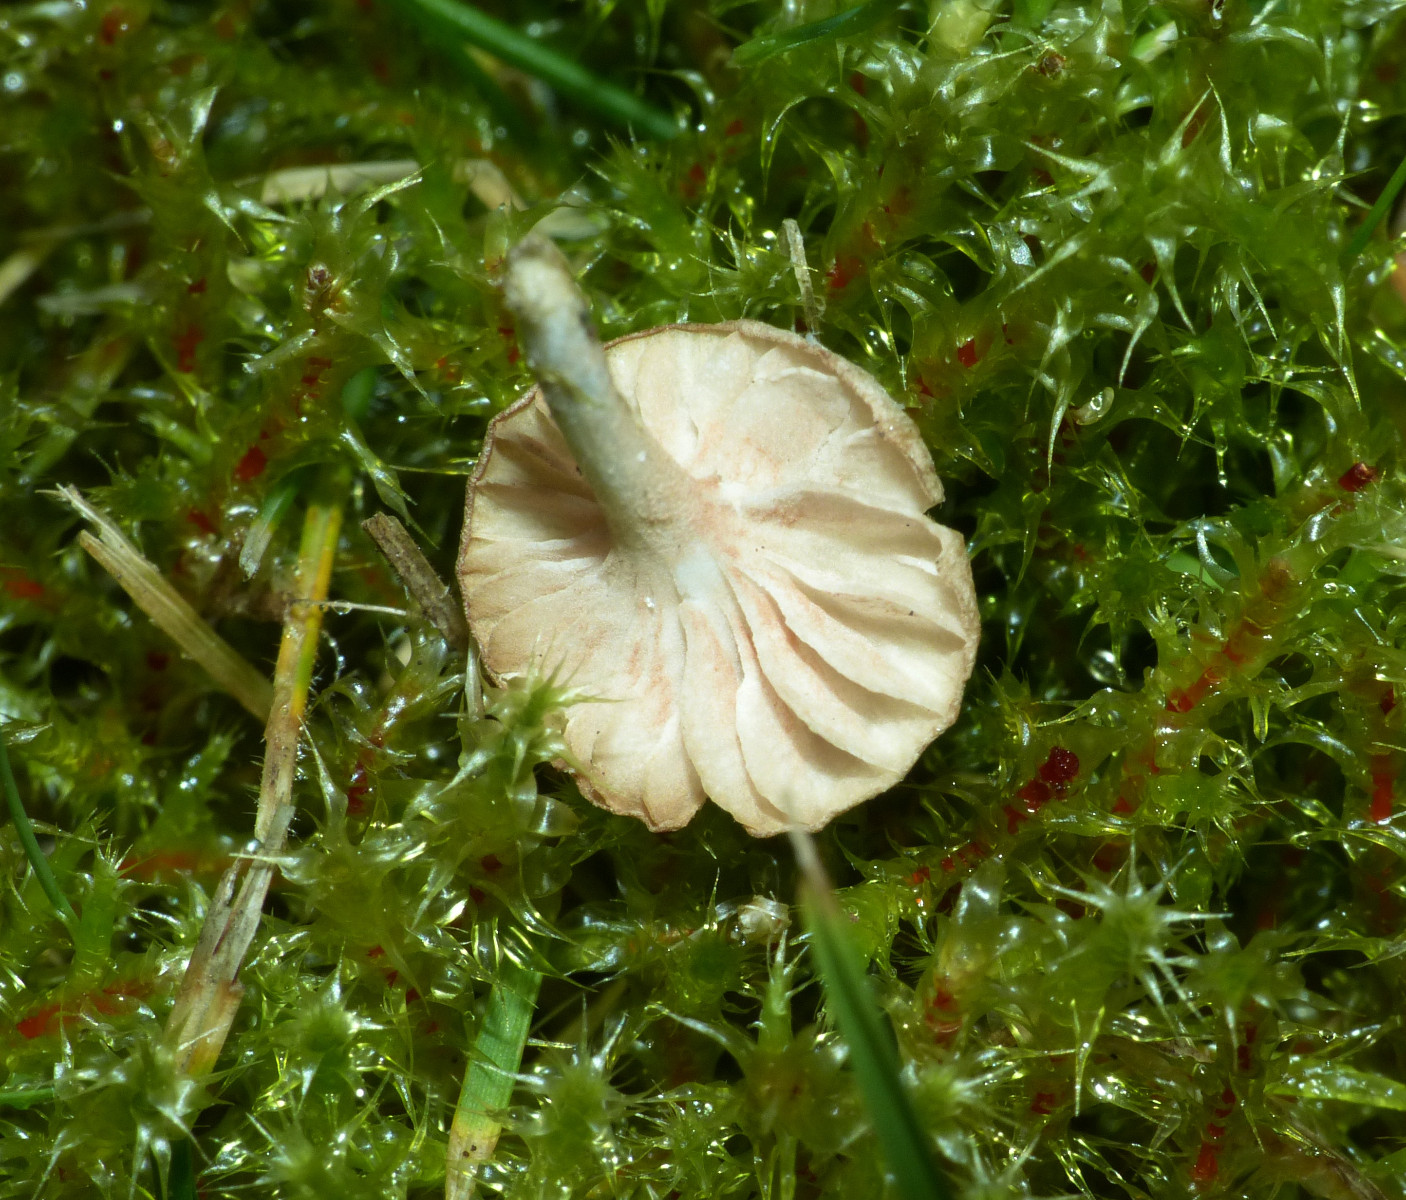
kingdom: Fungi
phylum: Basidiomycota
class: Agaricomycetes
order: Agaricales
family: Entolomataceae
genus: Entoloma
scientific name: Entoloma neglectum
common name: bleg rødblad
